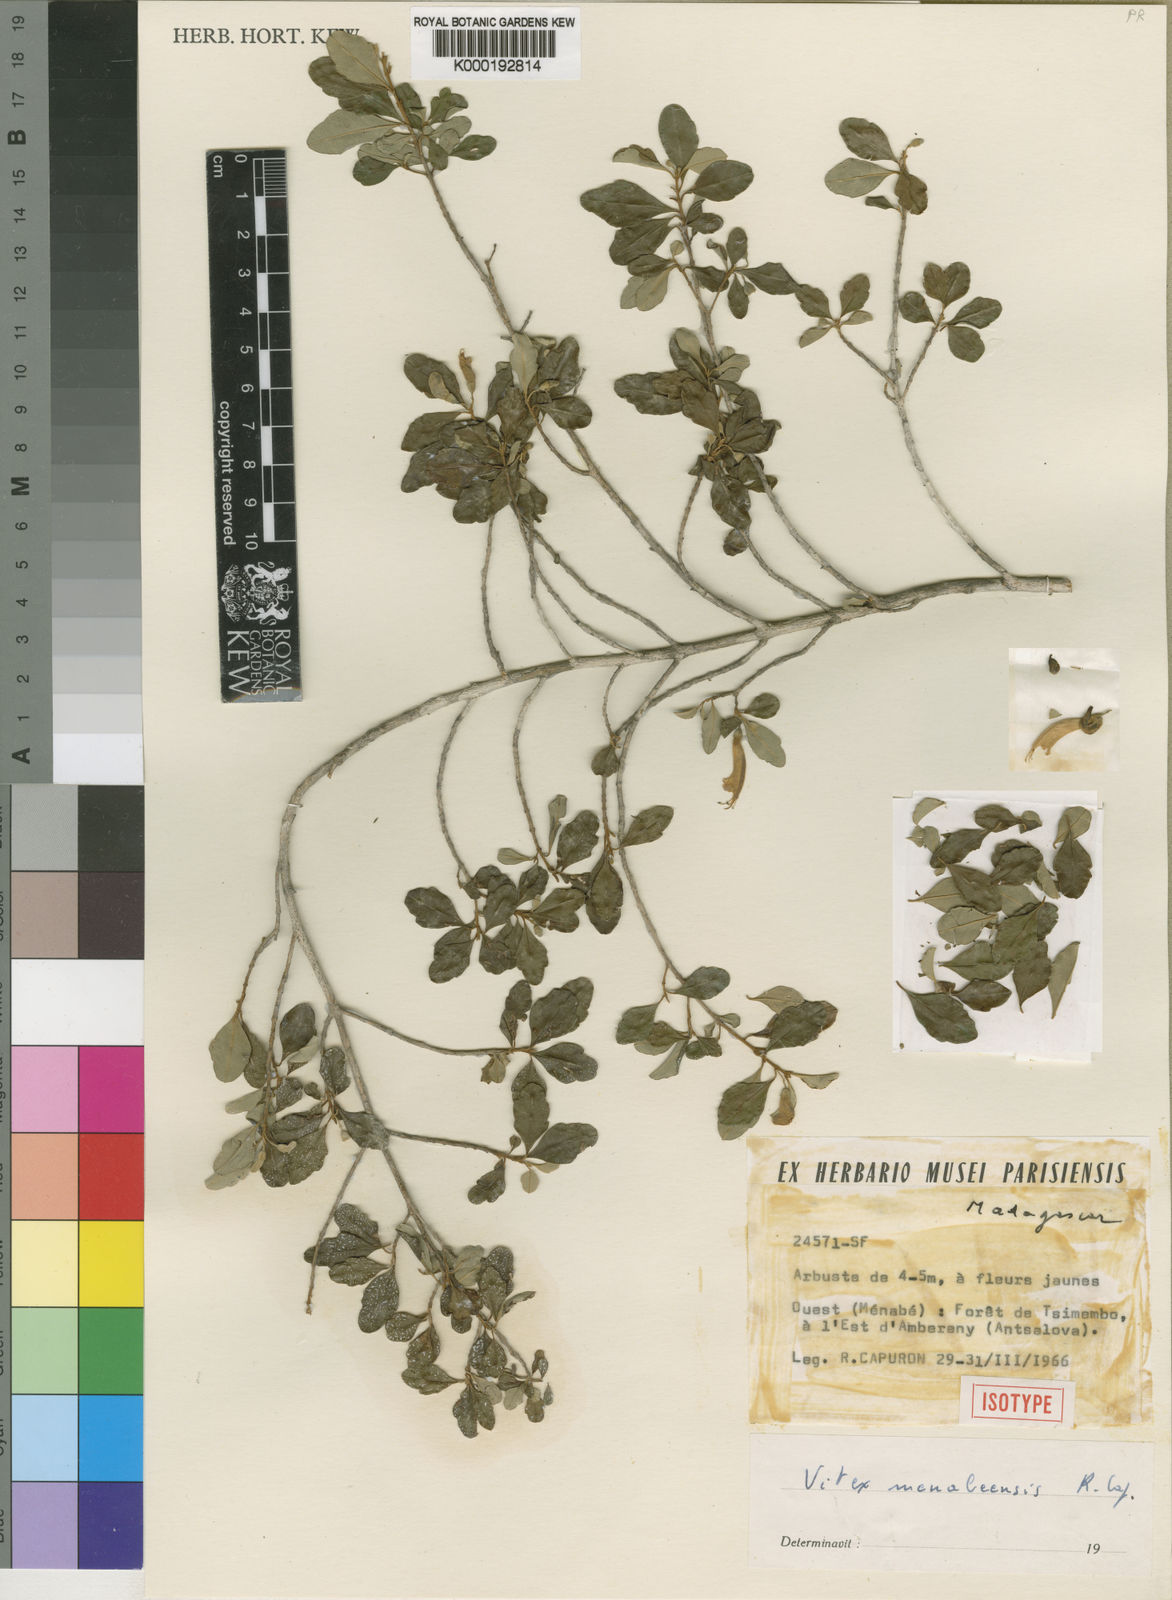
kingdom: Plantae
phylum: Tracheophyta
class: Magnoliopsida
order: Lamiales
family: Lamiaceae
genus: Vitex
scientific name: Vitex menabeensis
